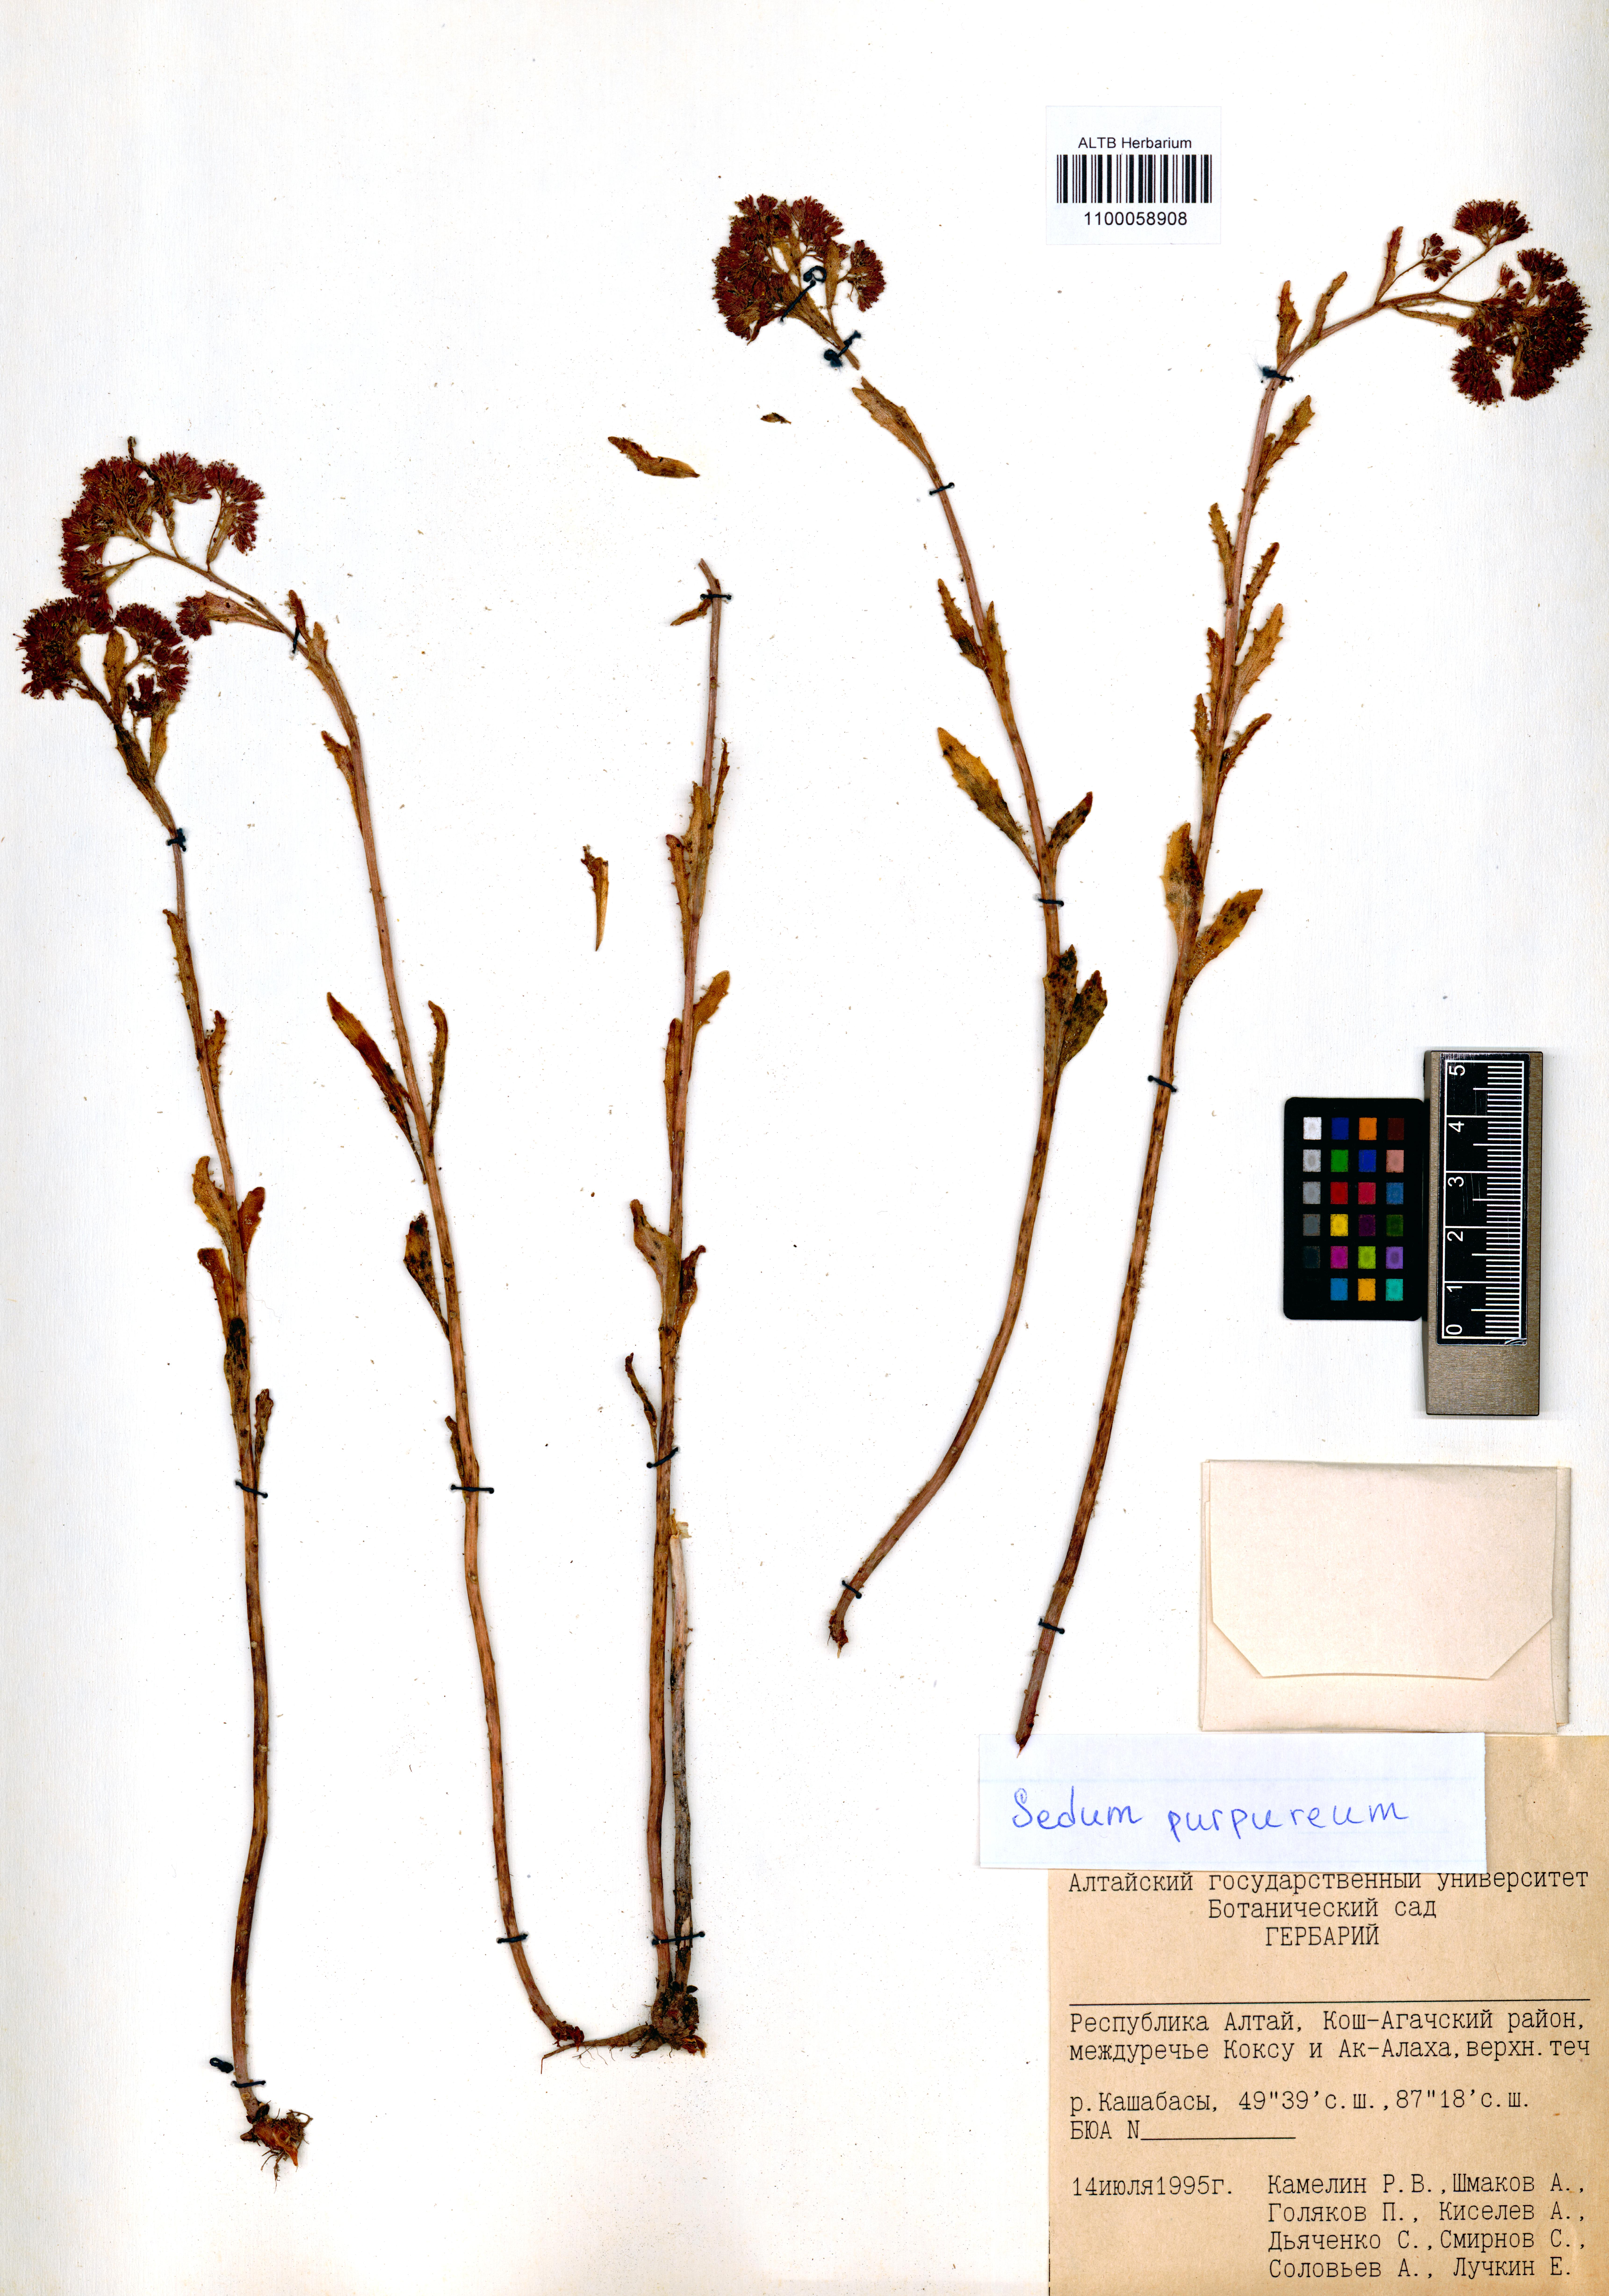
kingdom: Plantae
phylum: Tracheophyta
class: Magnoliopsida
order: Saxifragales
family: Crassulaceae
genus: Hylotelephium
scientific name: Hylotelephium telephium
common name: Live-forever
